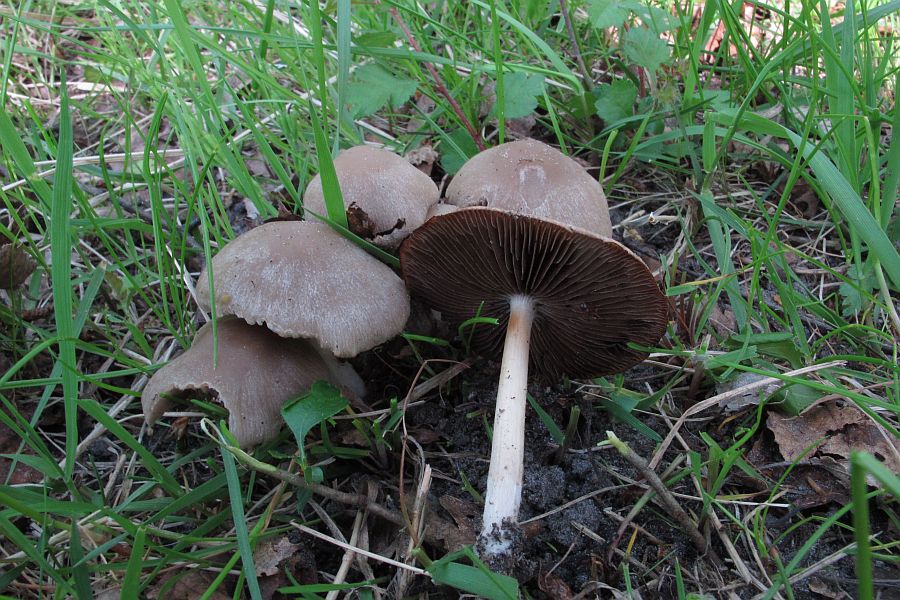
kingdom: Fungi
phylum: Basidiomycota
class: Agaricomycetes
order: Agaricales
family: Psathyrellaceae
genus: Psathyrella
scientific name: Psathyrella spadiceogrisea
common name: gråbrun mørkhat
